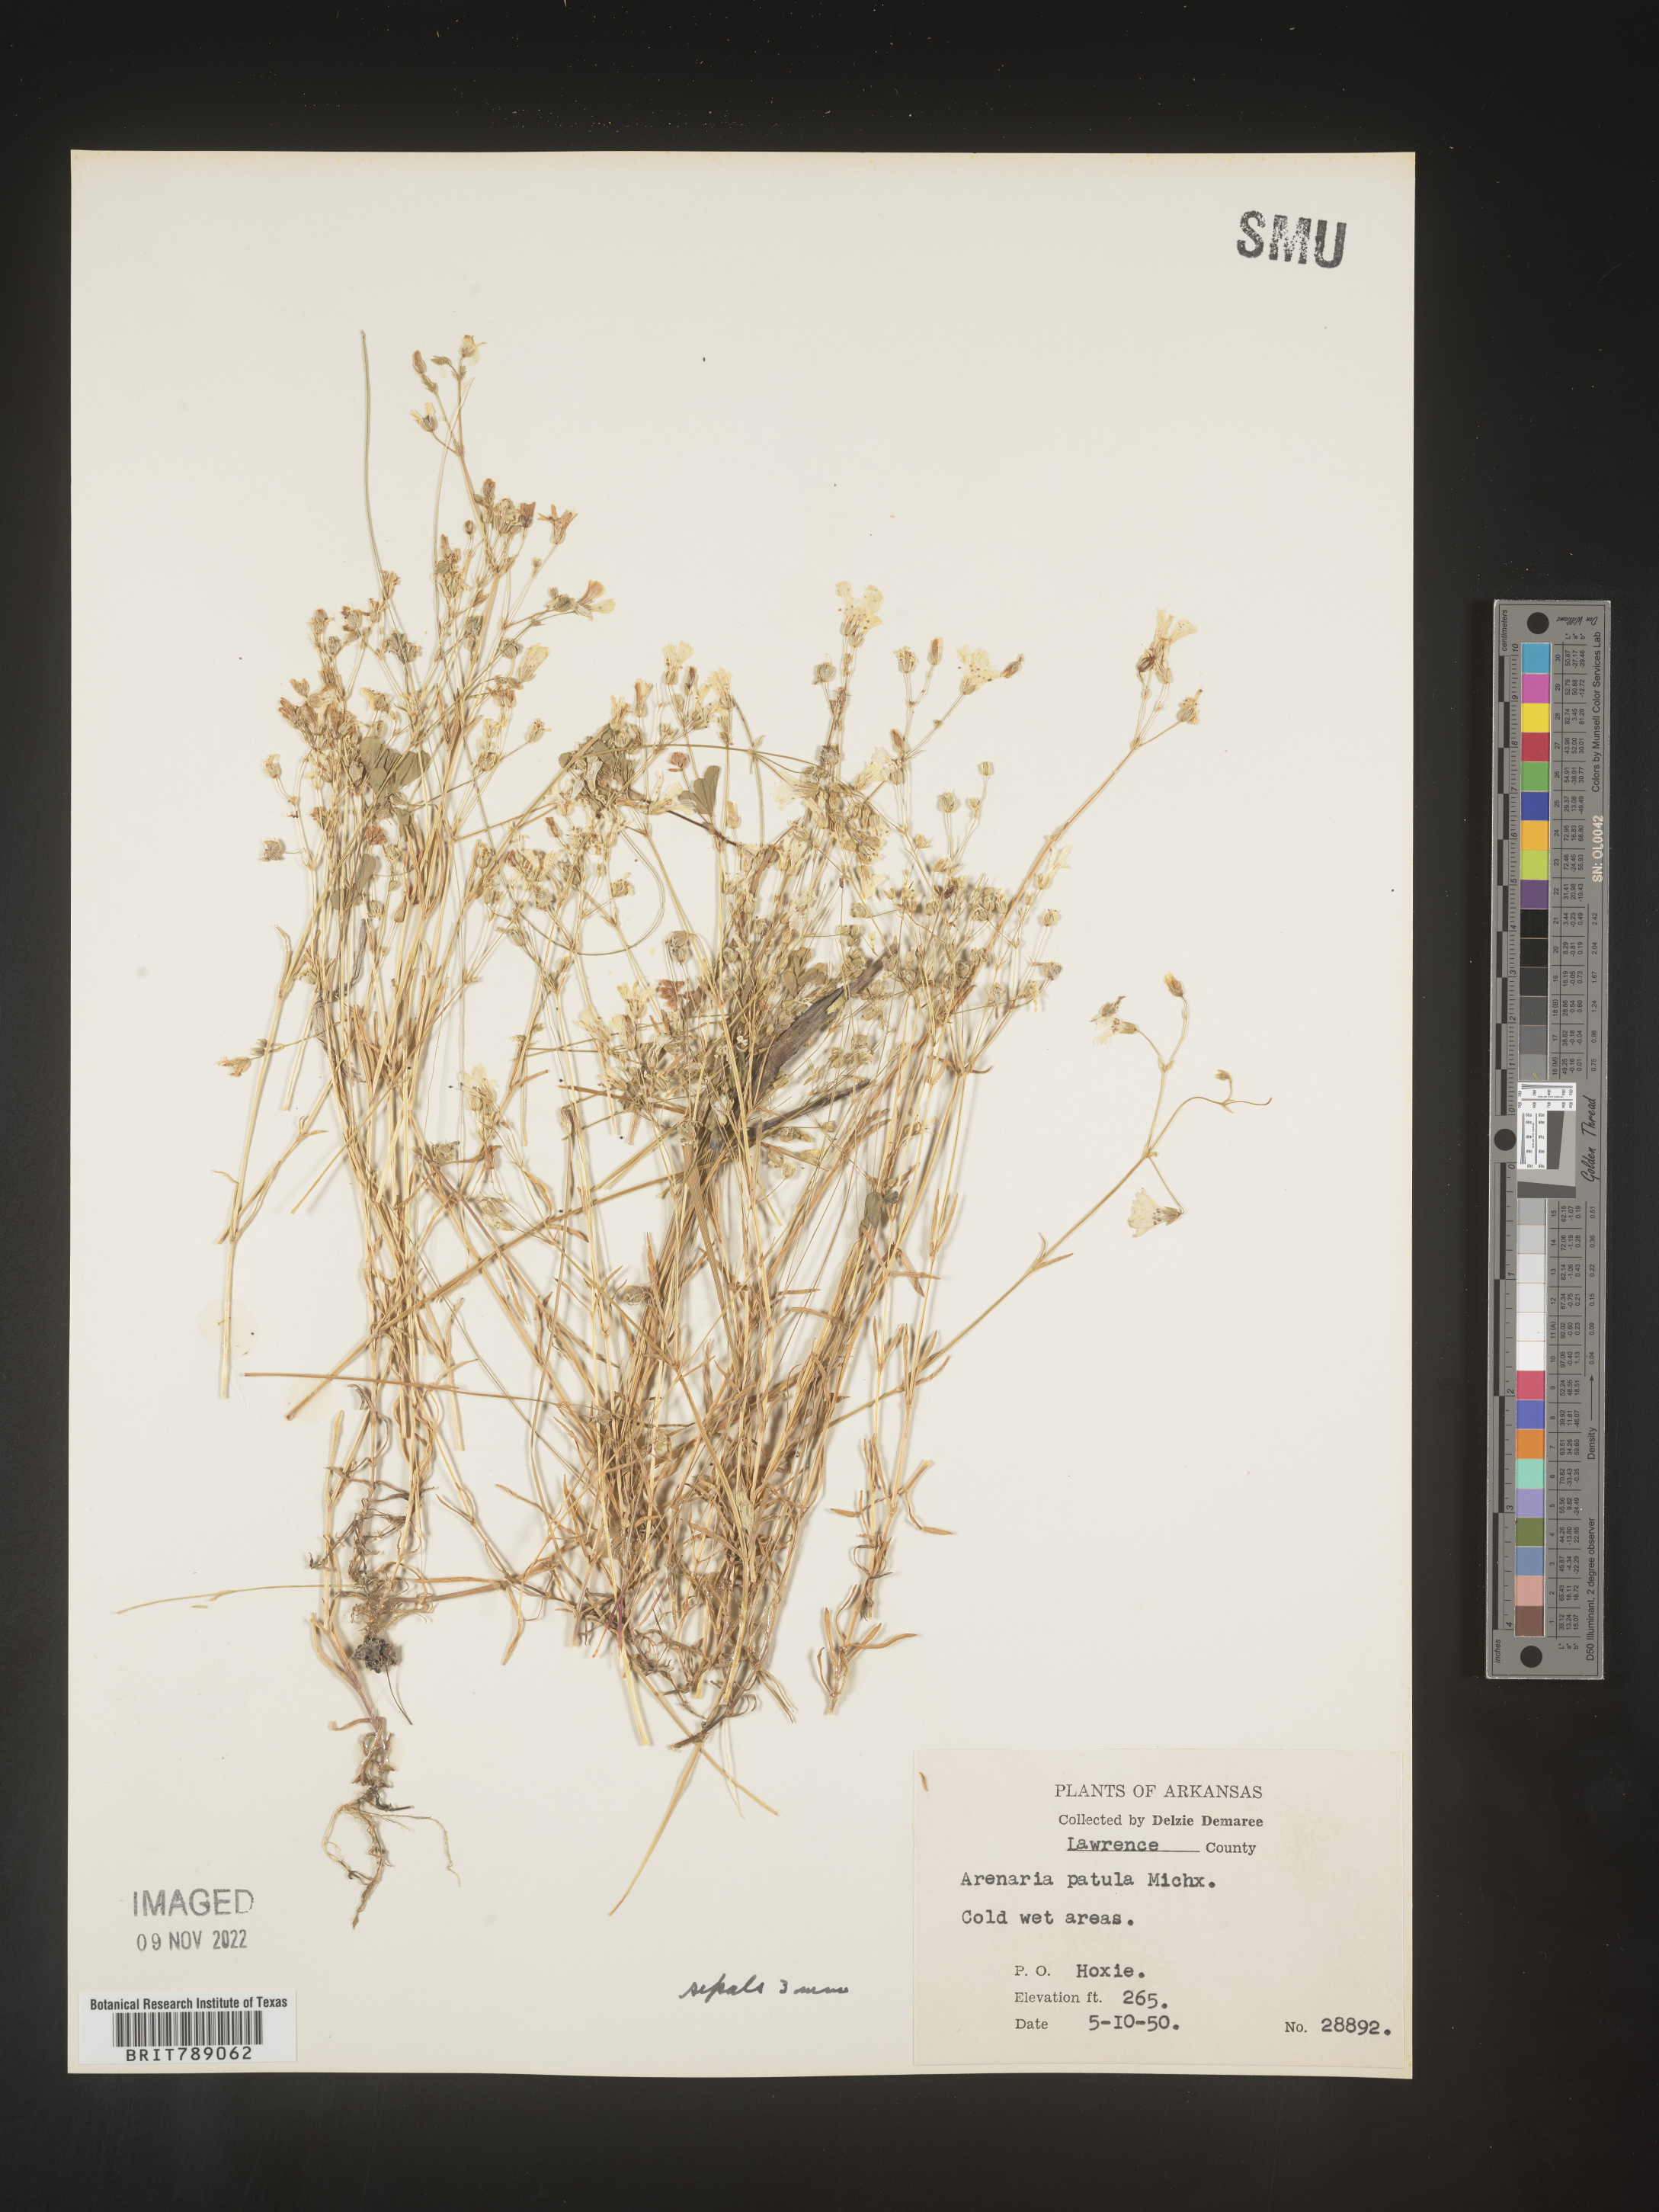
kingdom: Plantae
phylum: Tracheophyta
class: Magnoliopsida
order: Caryophyllales
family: Caryophyllaceae
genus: Mononeuria
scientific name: Mononeuria patula
